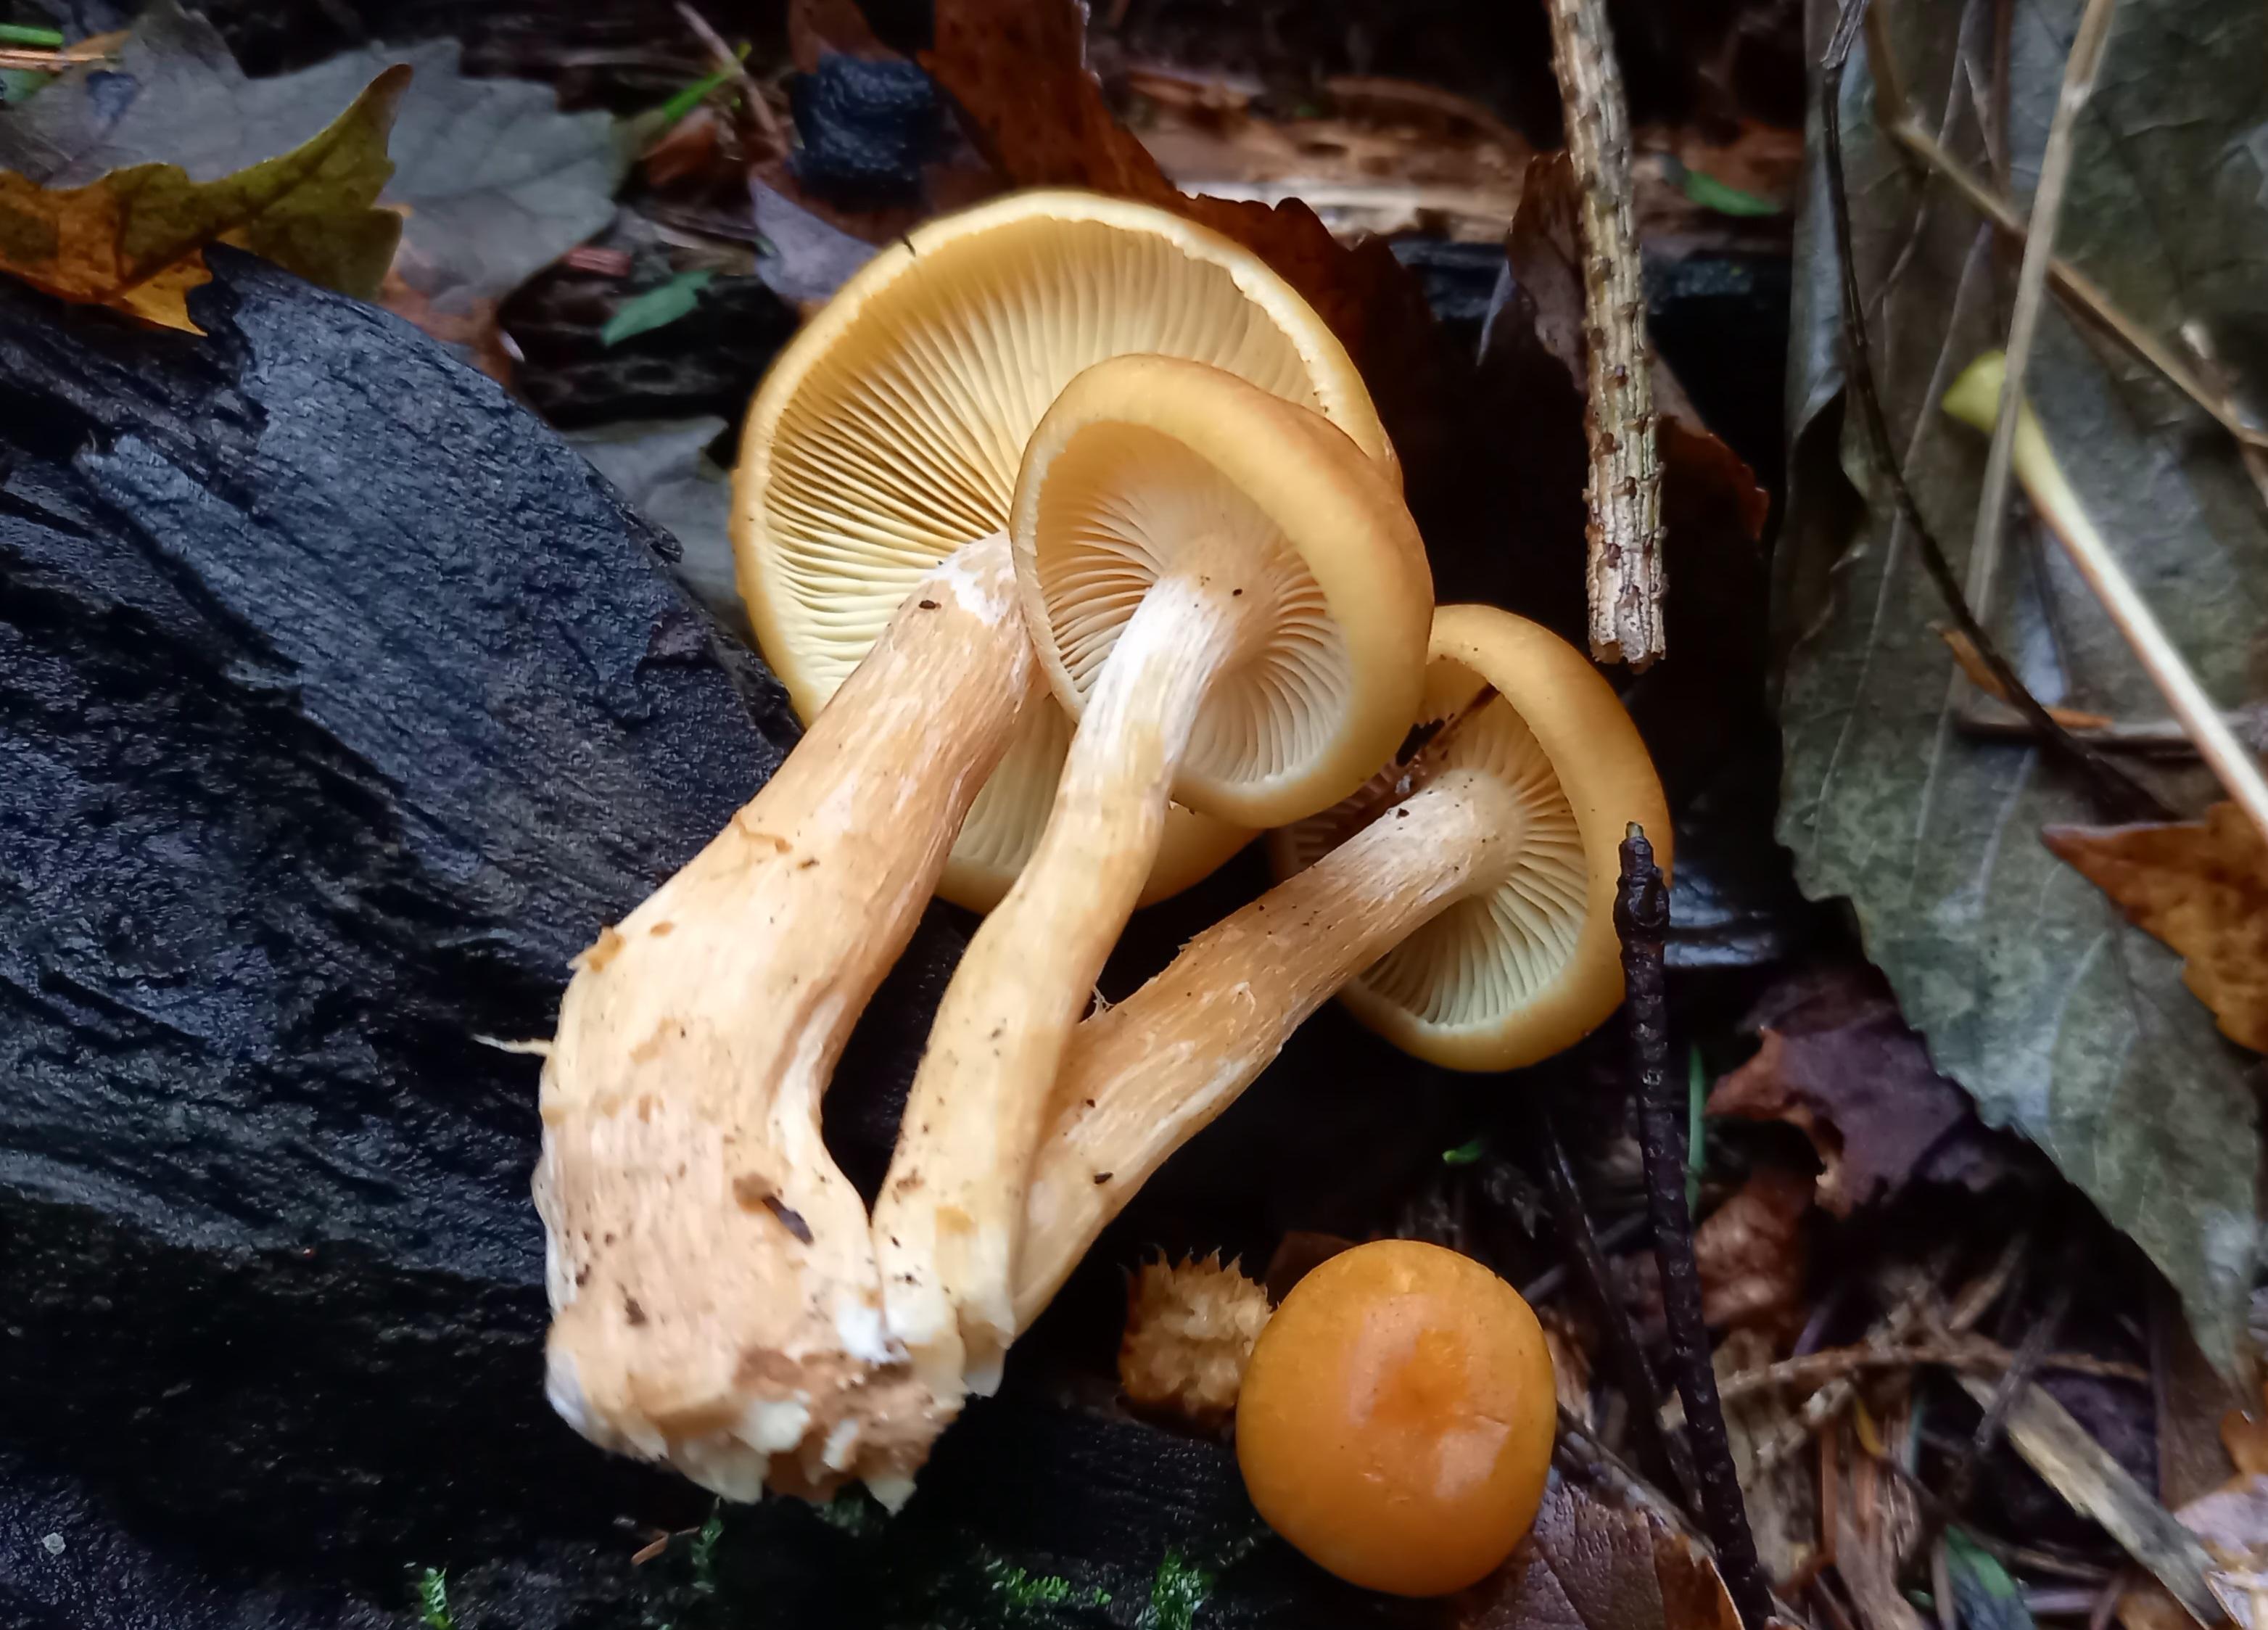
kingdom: Fungi
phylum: Basidiomycota
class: Agaricomycetes
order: Agaricales
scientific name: Agaricales
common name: champignonordenen
